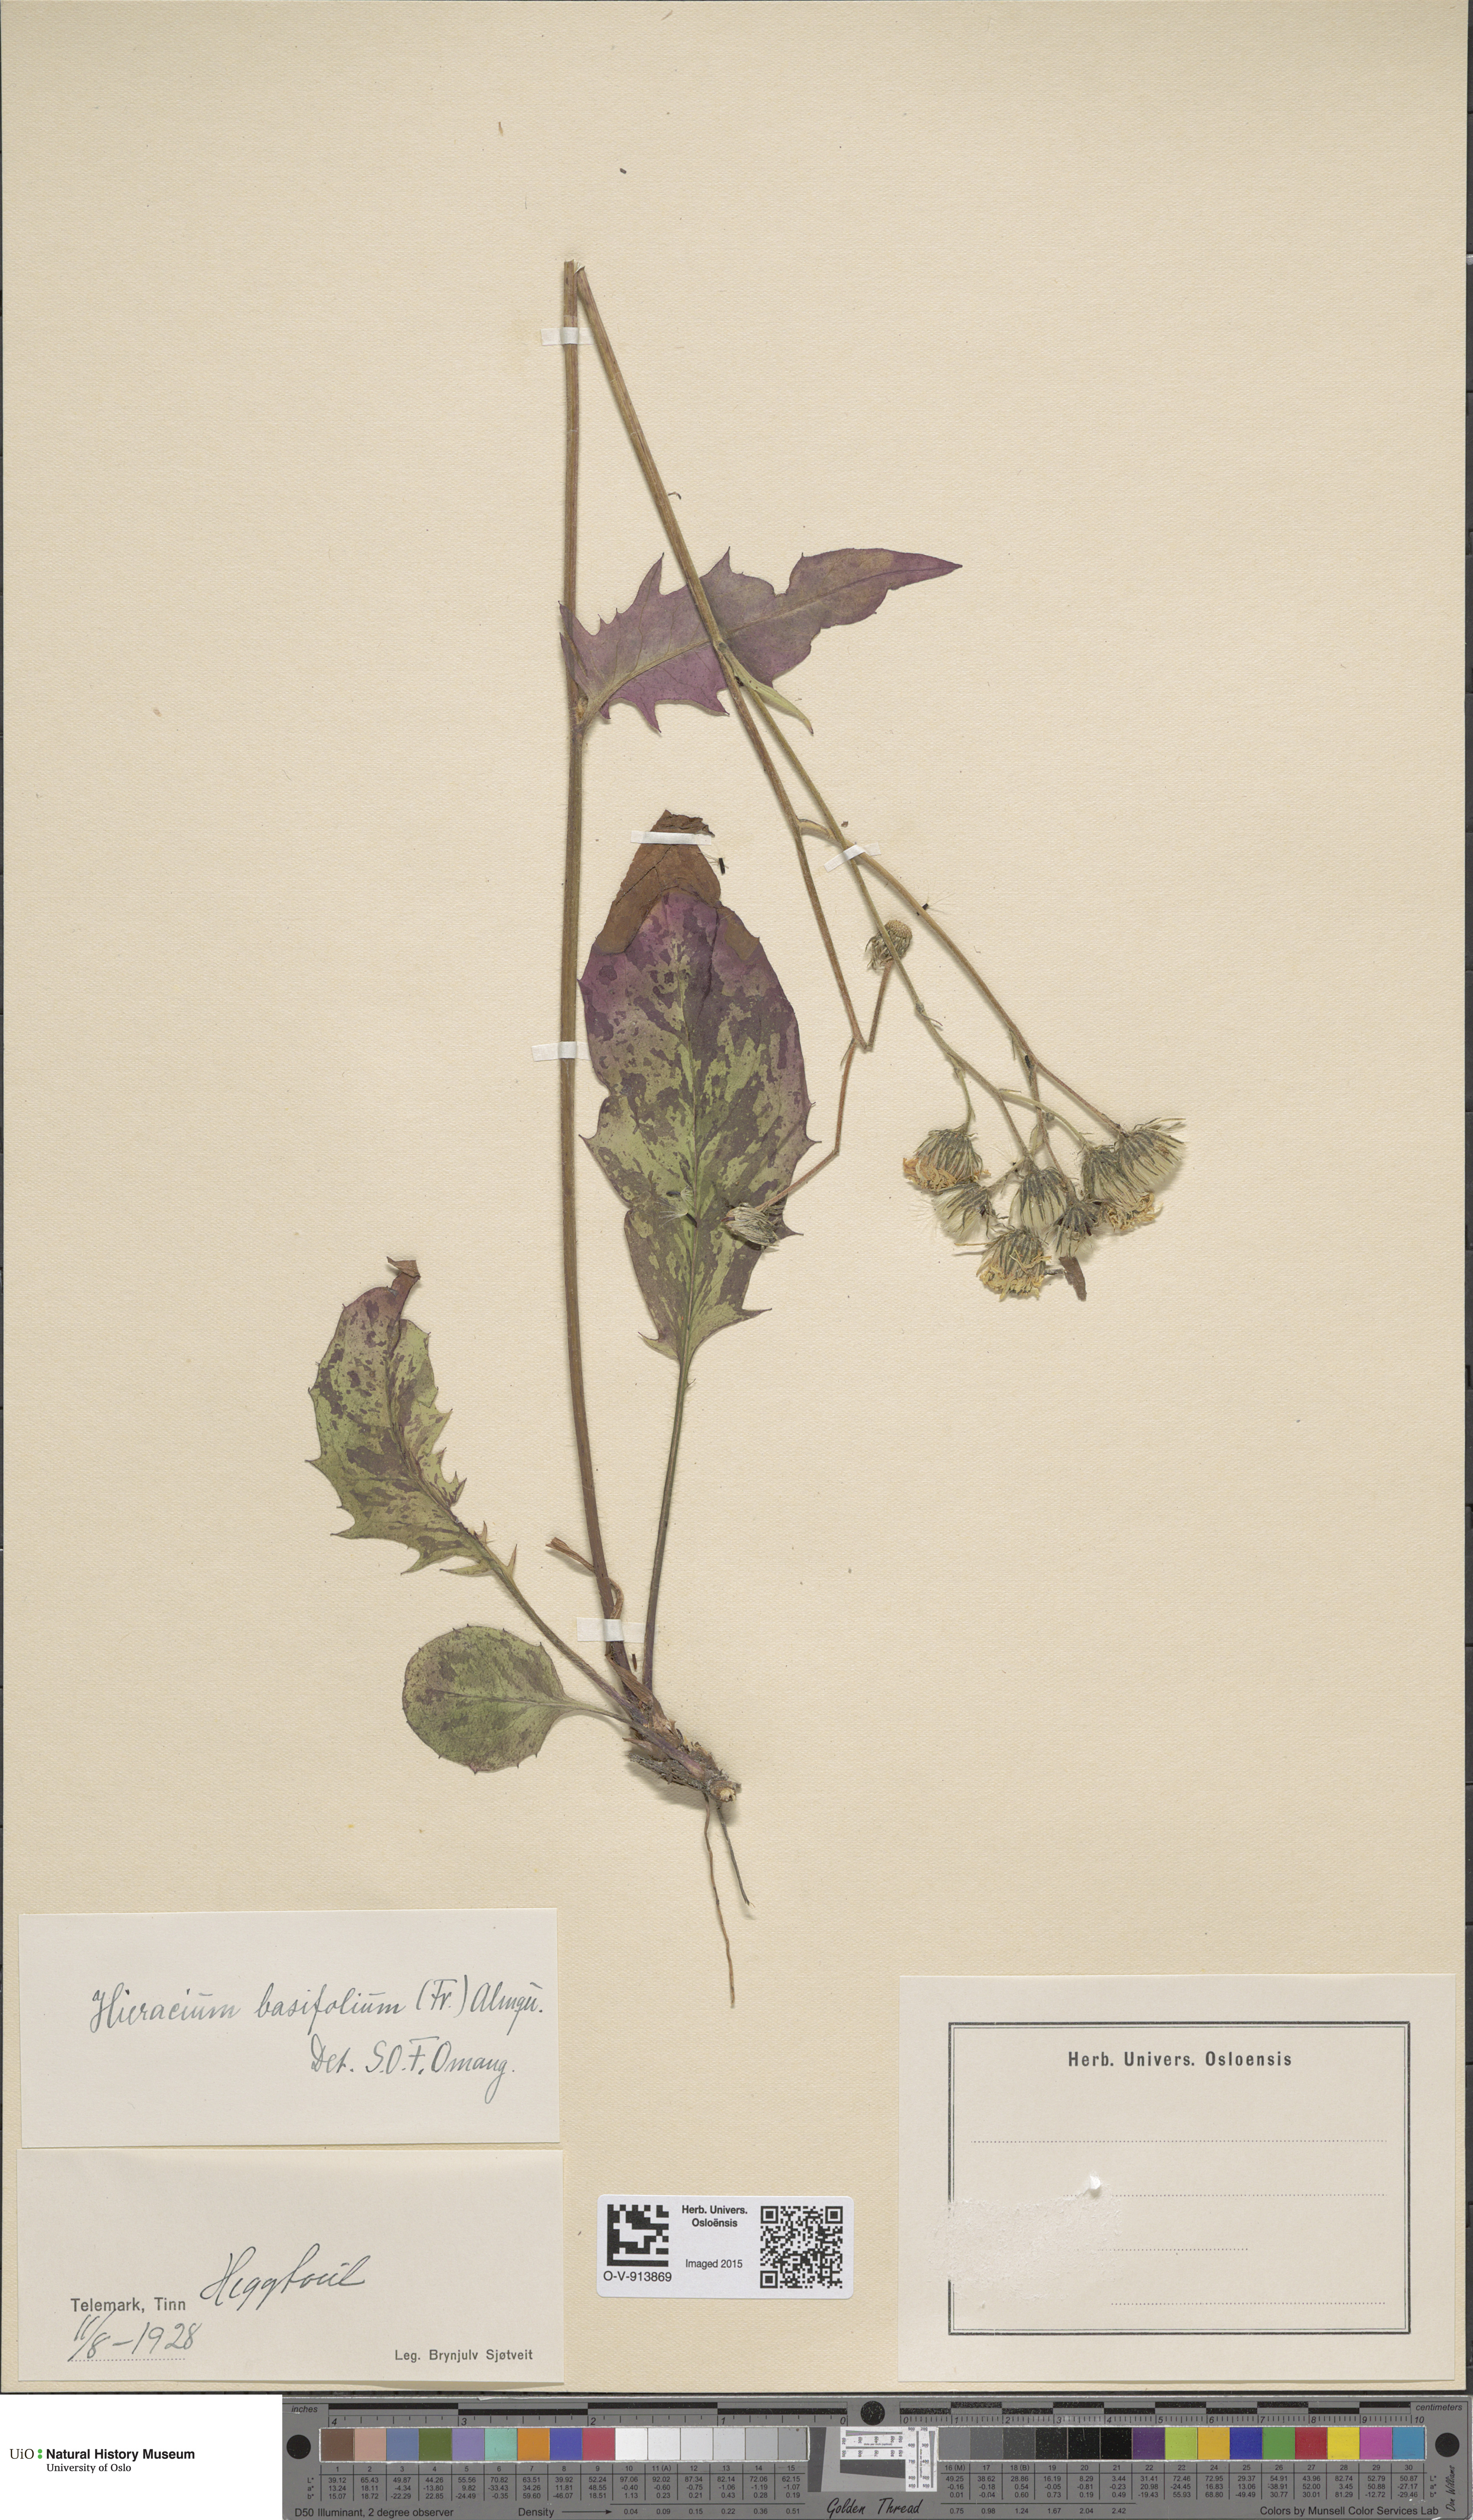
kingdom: Plantae
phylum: Tracheophyta
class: Magnoliopsida
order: Asterales
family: Asteraceae
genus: Hieracium
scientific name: Hieracium basifolium
